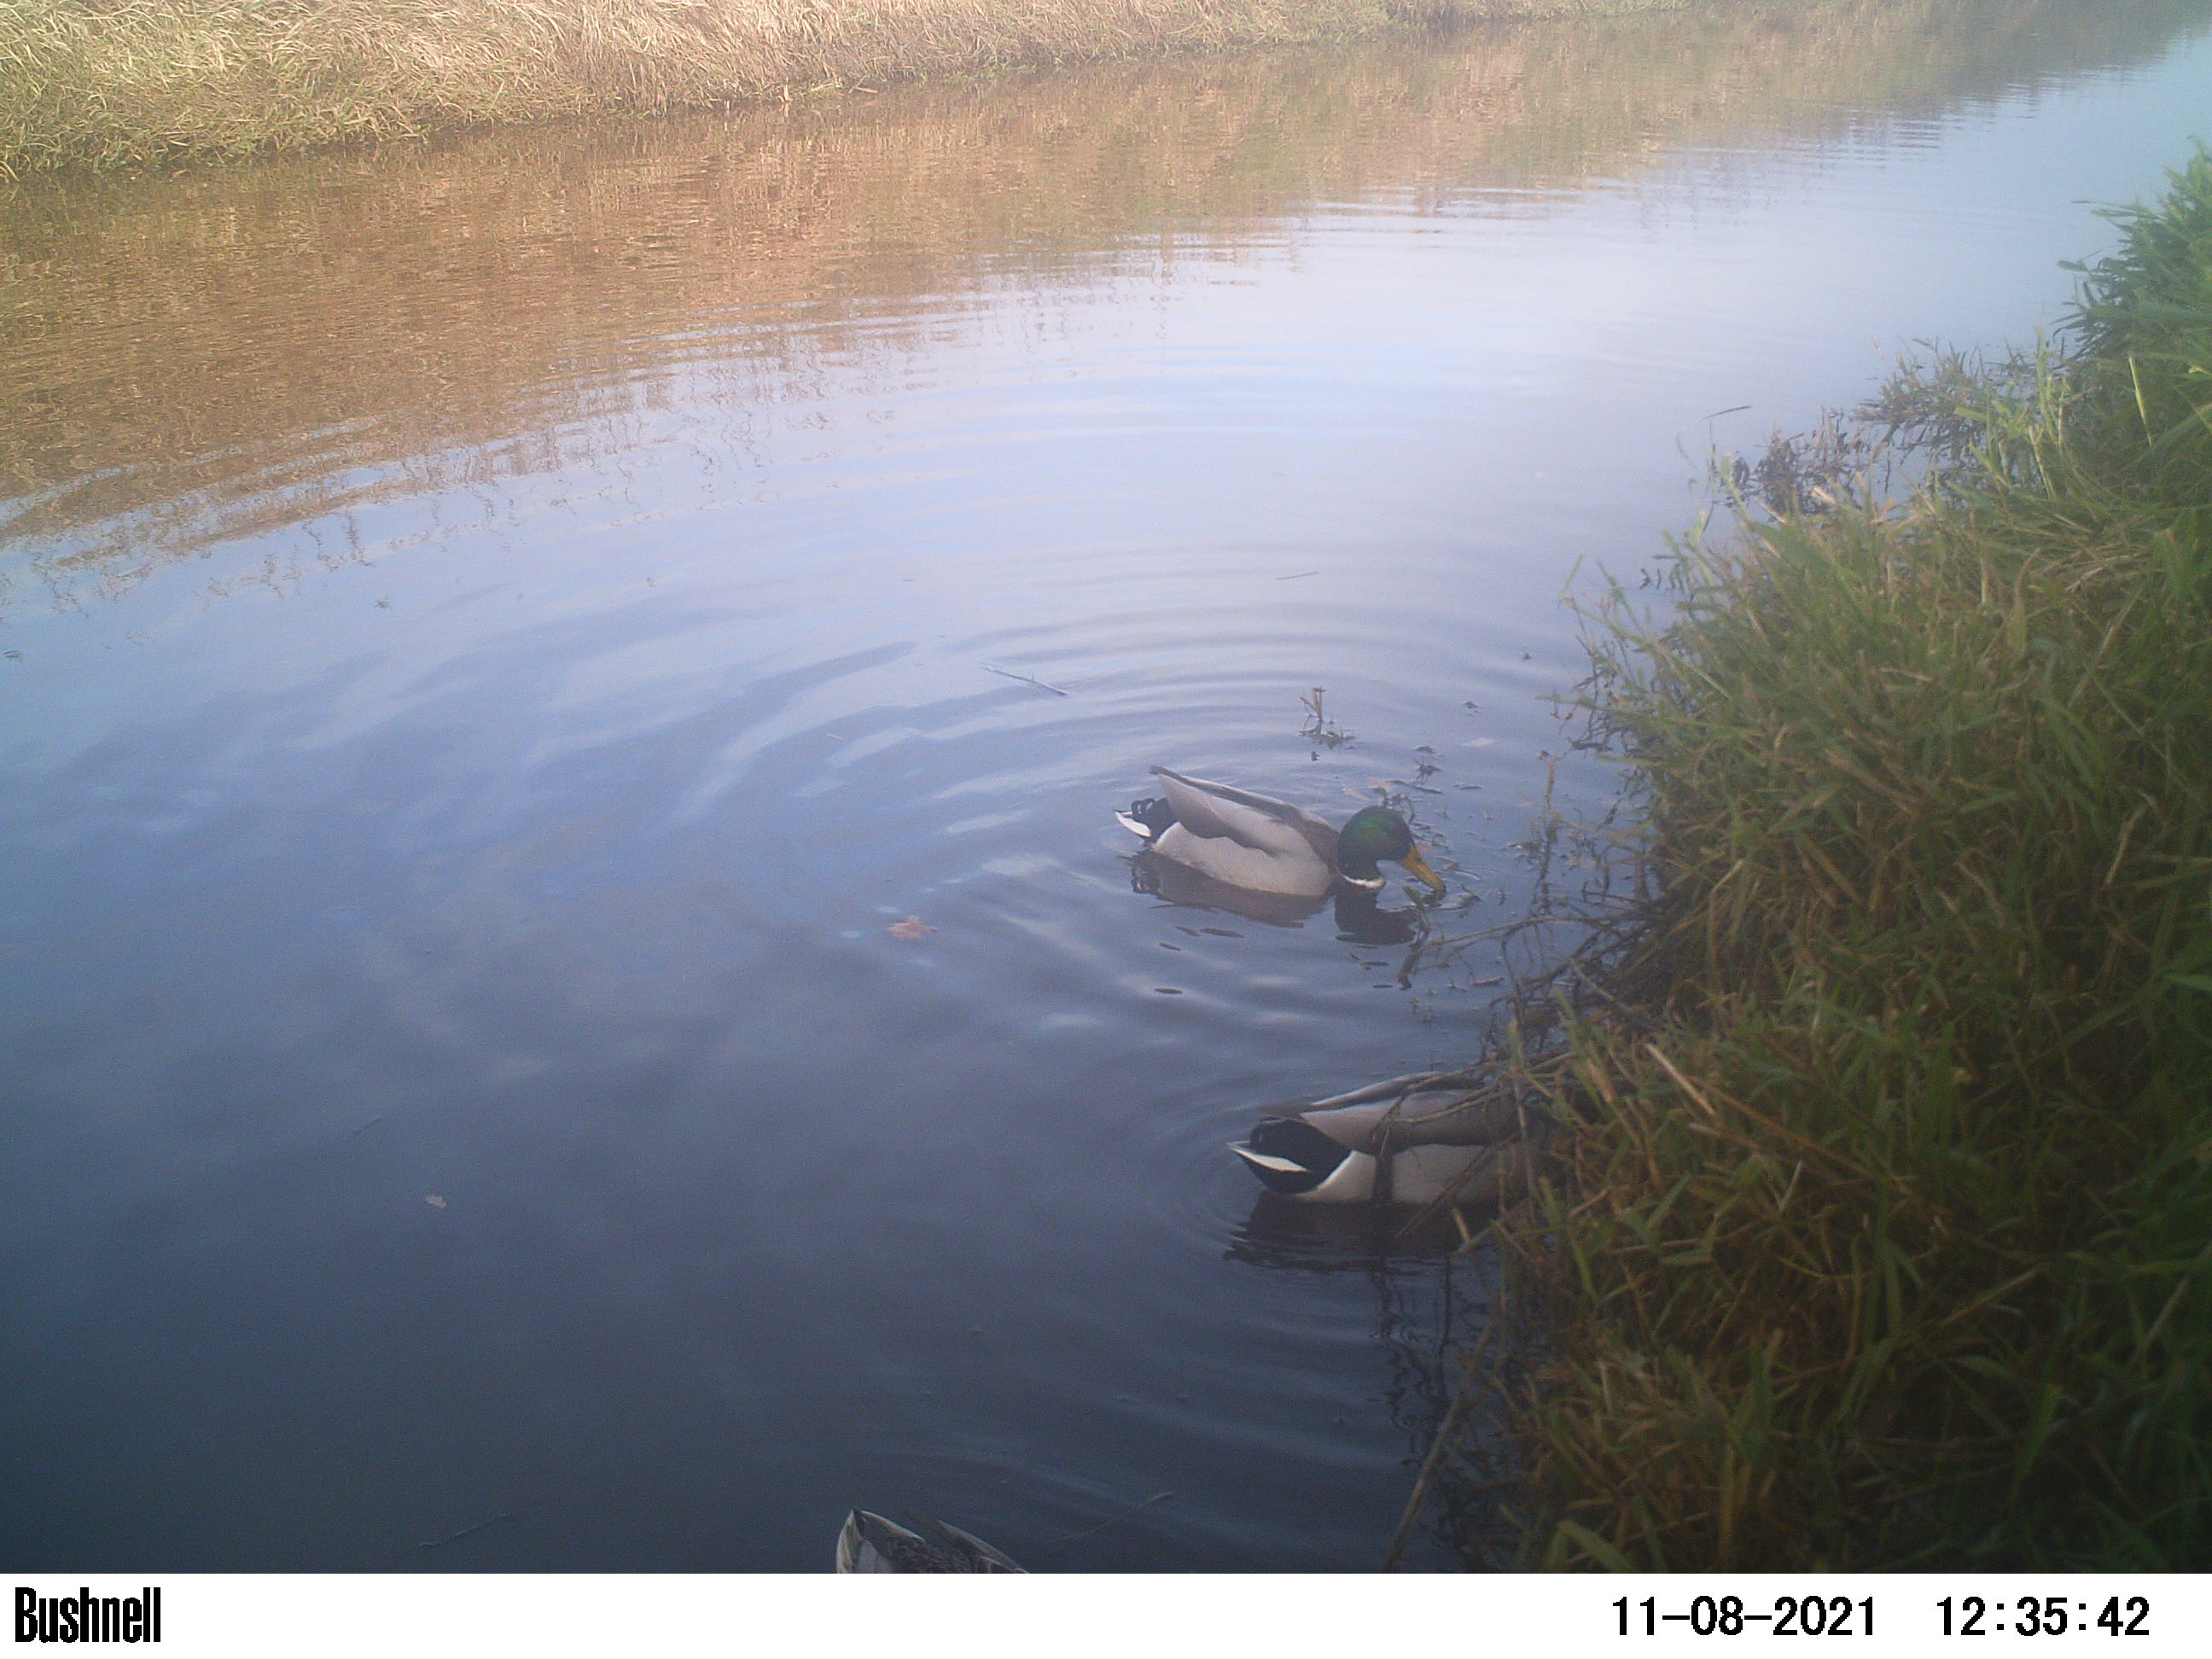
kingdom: Animalia
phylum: Chordata
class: Aves
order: Anseriformes
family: Anatidae
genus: Anas
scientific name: Anas
